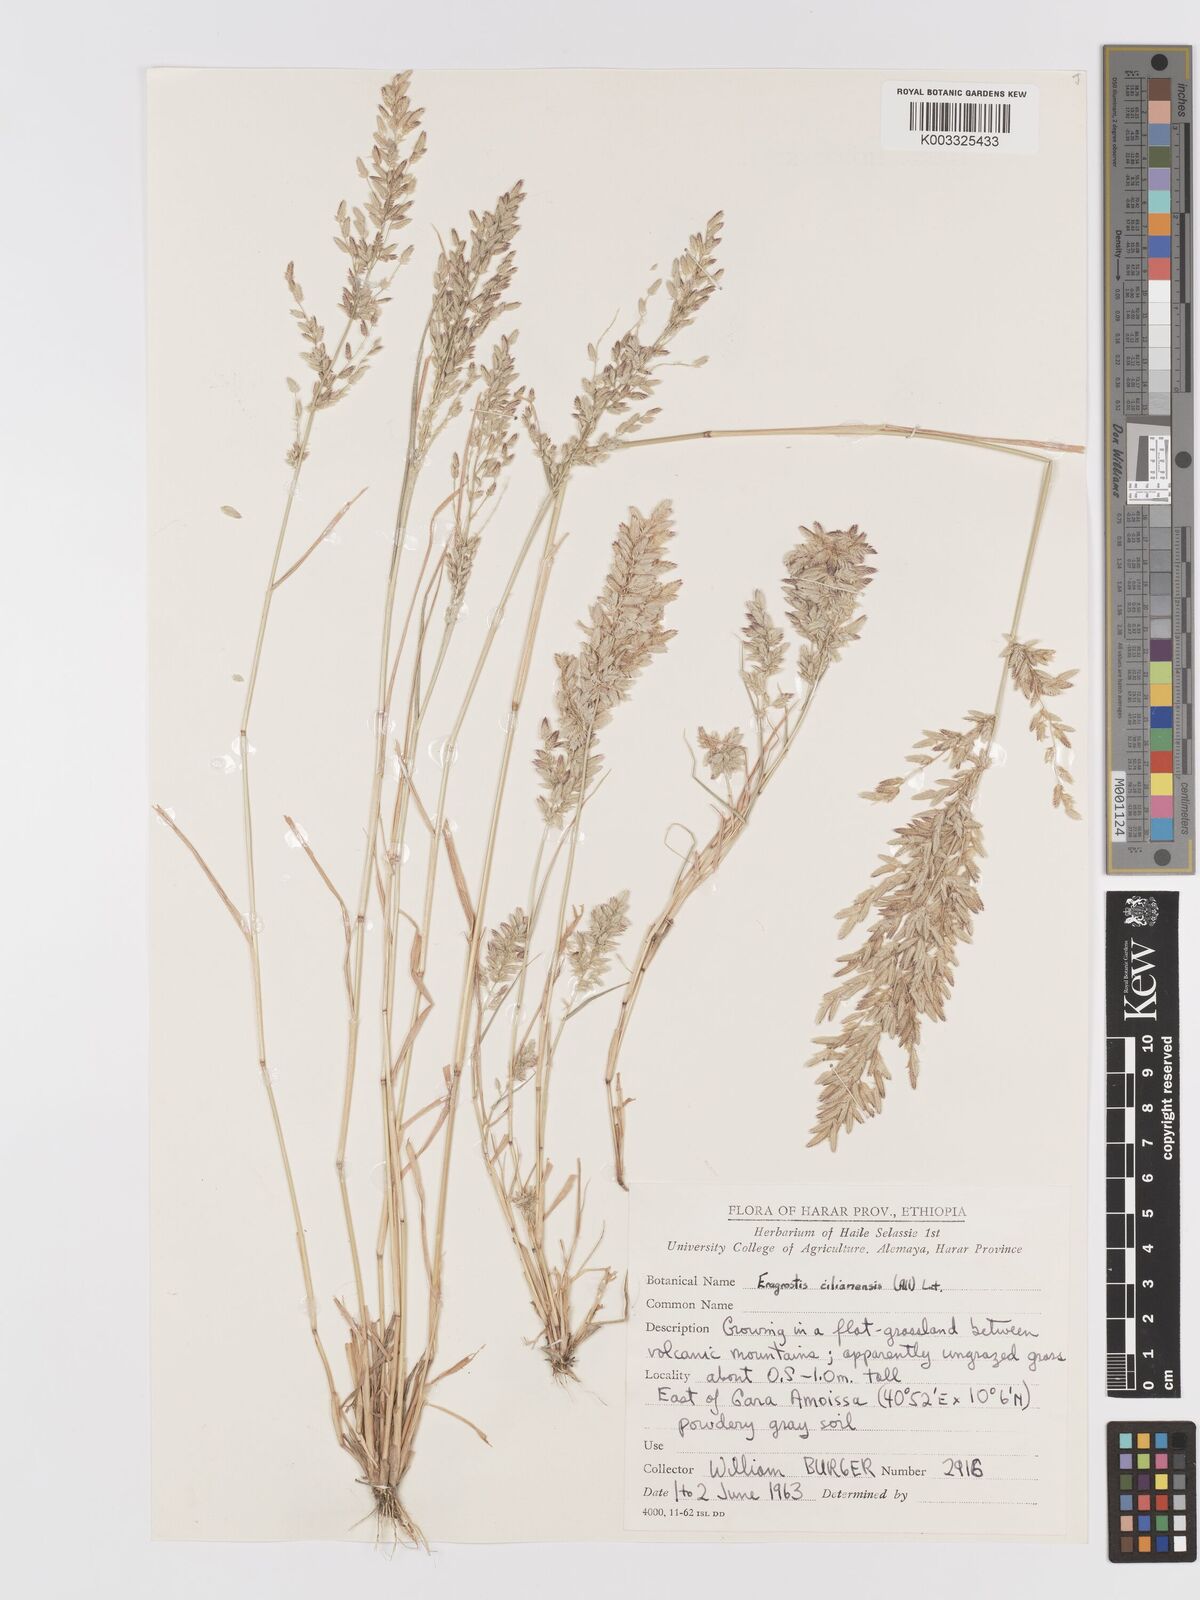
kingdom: Plantae
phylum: Tracheophyta
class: Liliopsida
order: Poales
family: Poaceae
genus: Eragrostis
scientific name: Eragrostis cilianensis
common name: Stinkgrass
